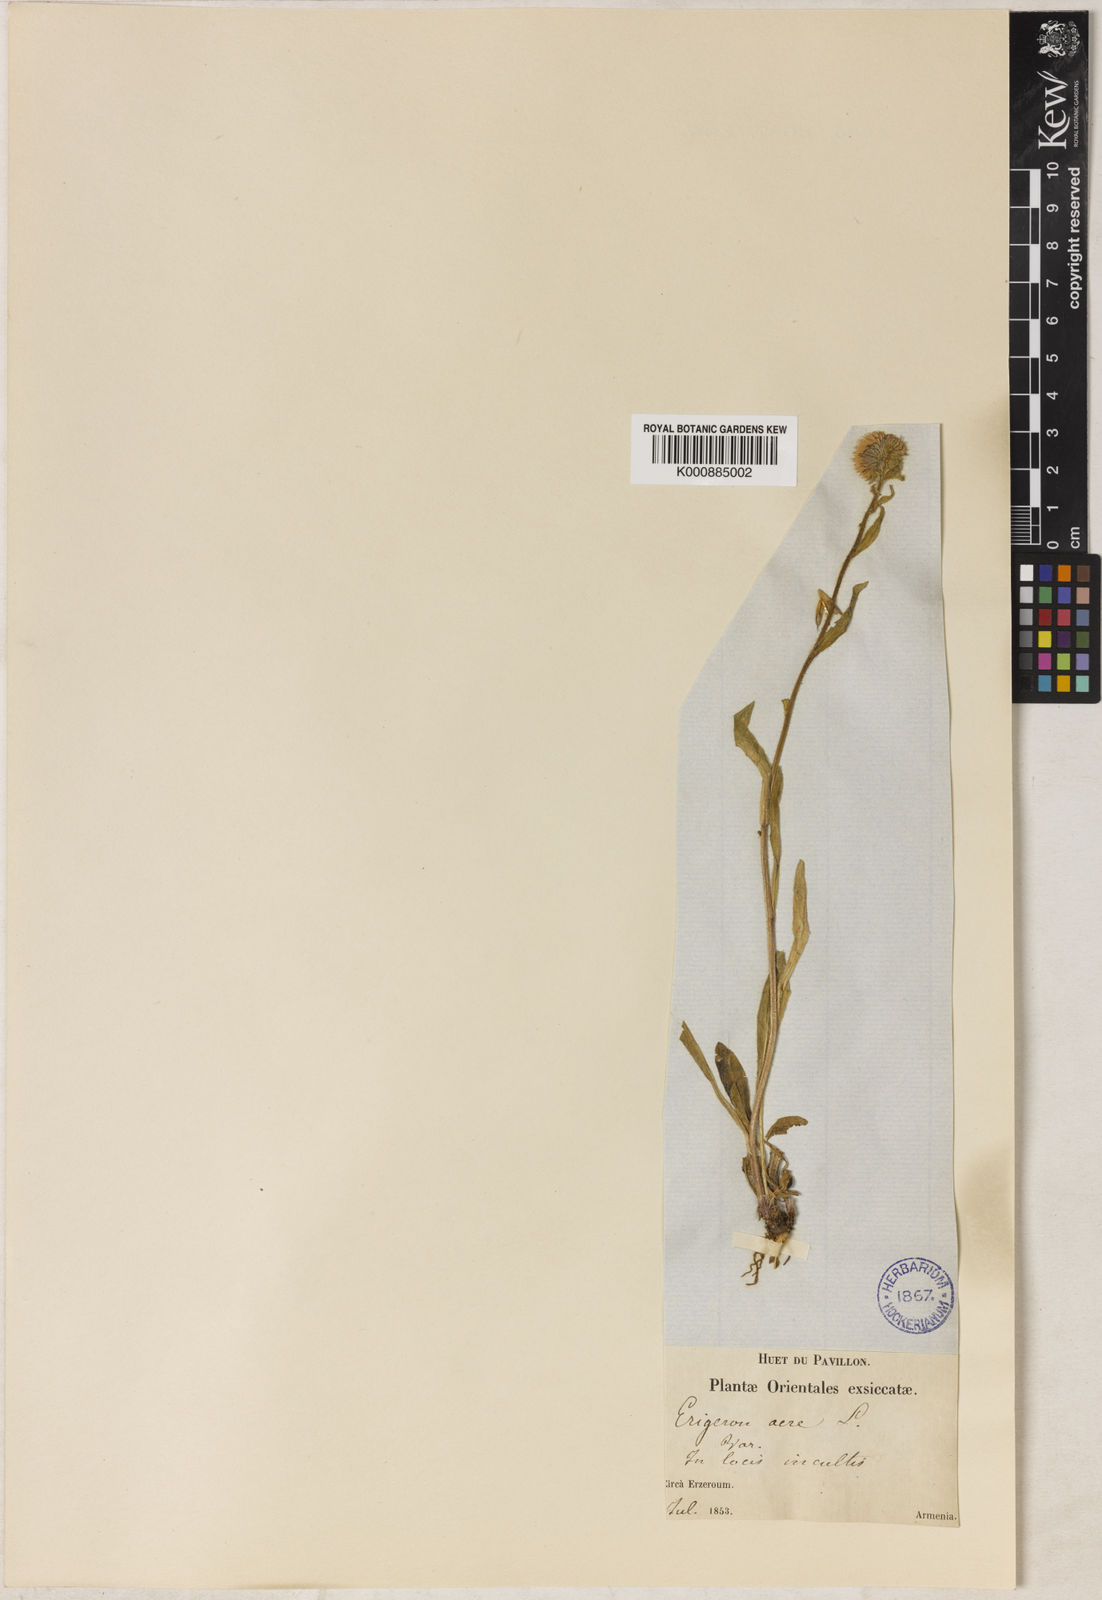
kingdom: Plantae
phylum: Tracheophyta
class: Magnoliopsida
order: Asterales
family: Asteraceae
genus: Erigeron
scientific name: Erigeron acris
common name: Blue fleabane
